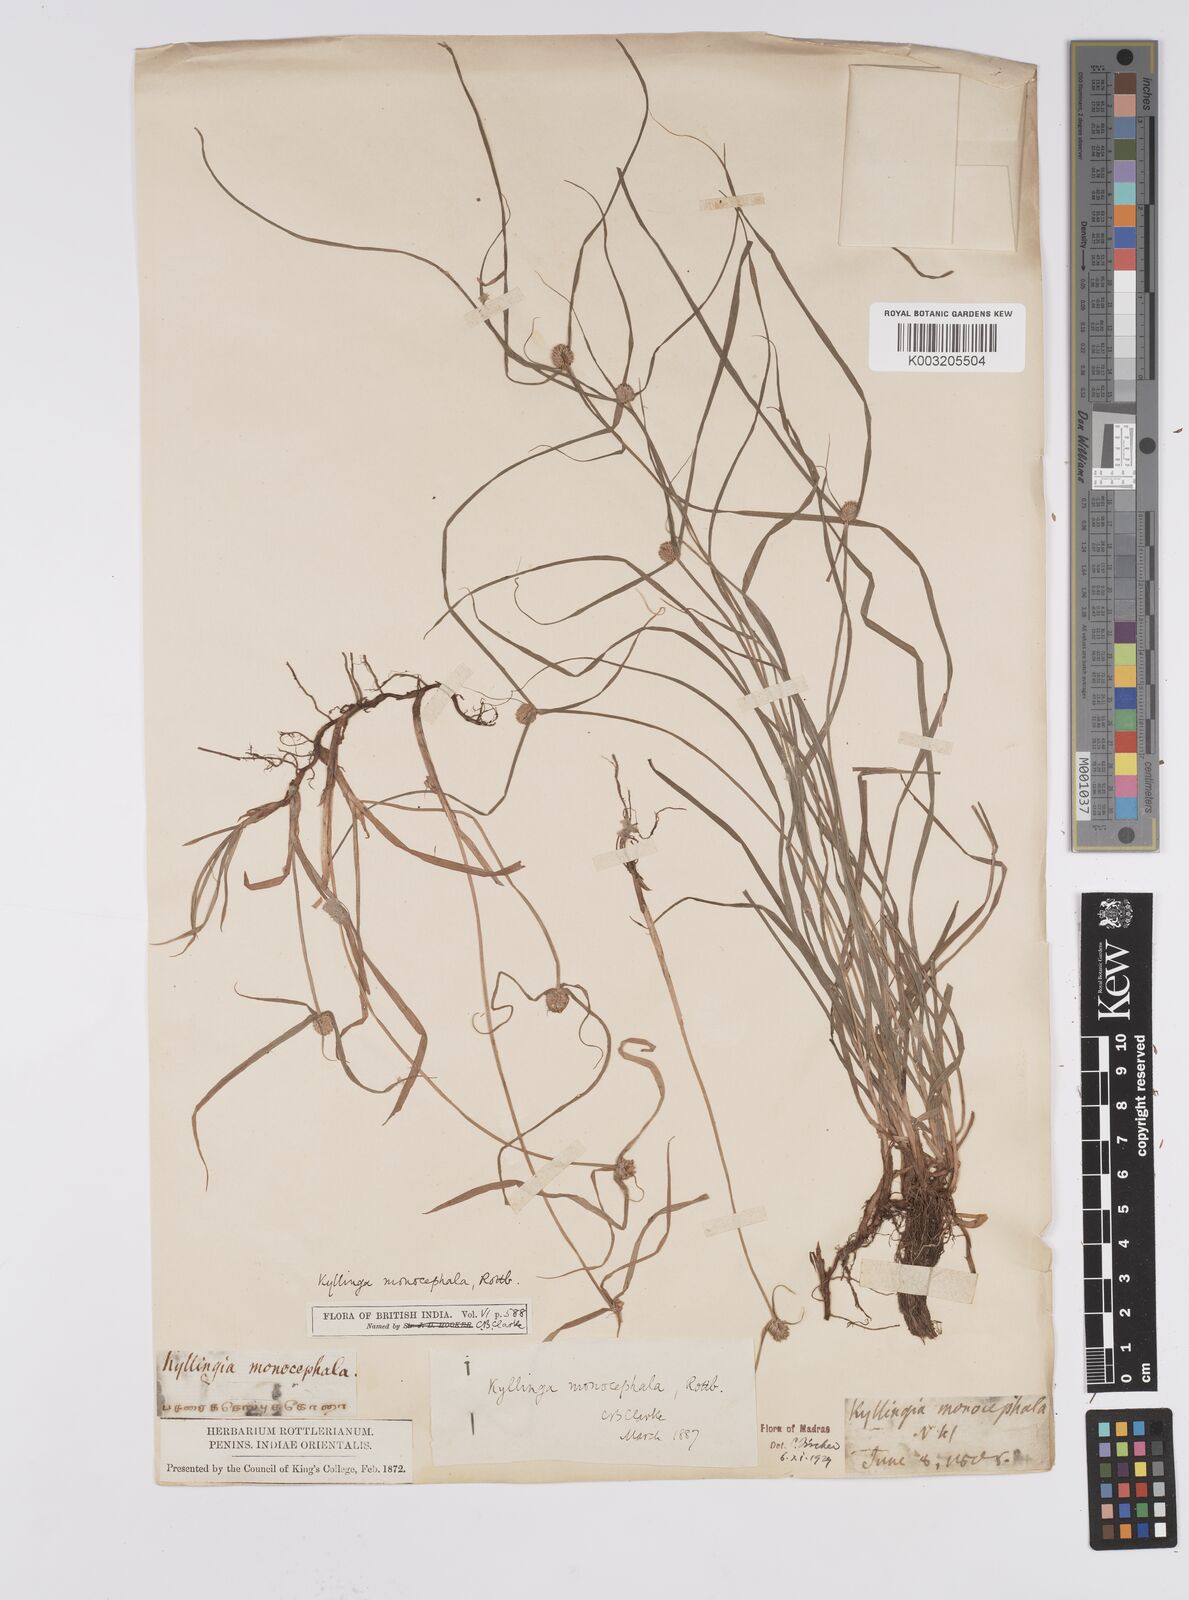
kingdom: Plantae
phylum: Tracheophyta
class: Liliopsida
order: Poales
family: Cyperaceae
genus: Cyperus
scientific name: Cyperus nemoralis
